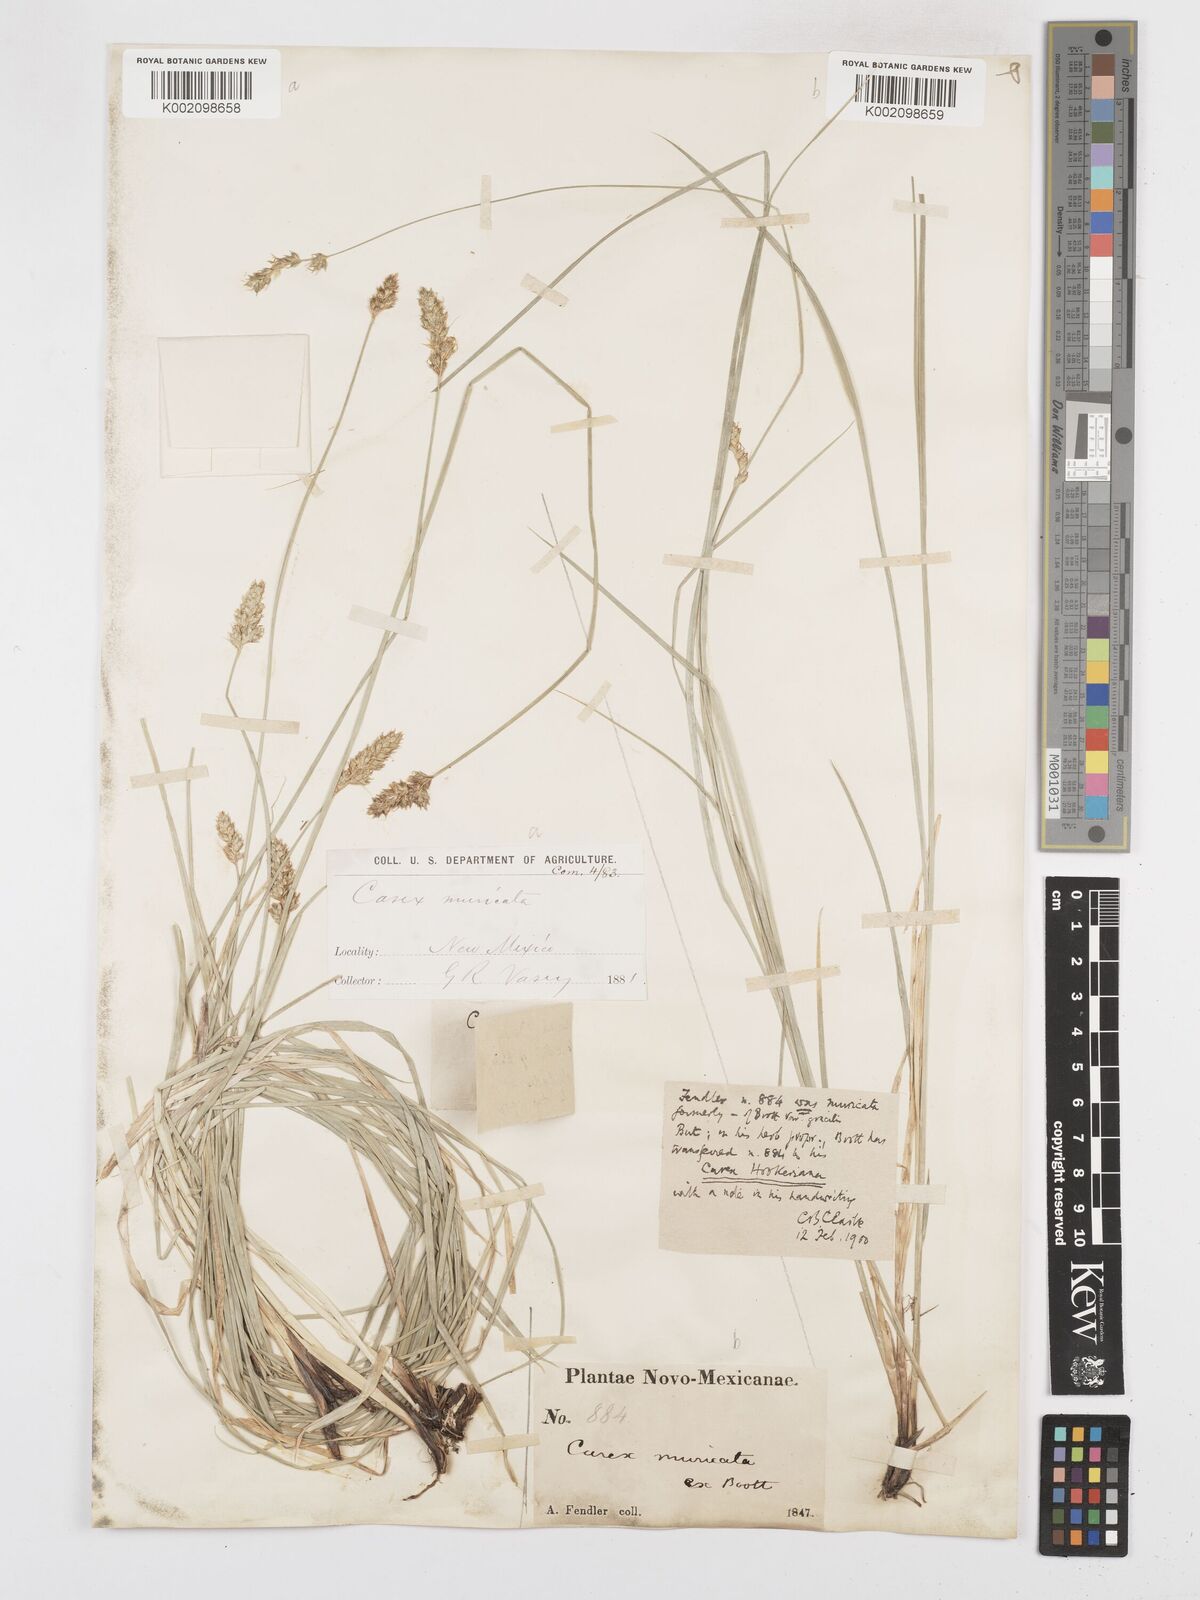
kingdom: Plantae
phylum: Tracheophyta
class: Liliopsida
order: Poales
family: Cyperaceae
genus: Carex
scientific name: Carex hookeriana
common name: Hooker's sedge
